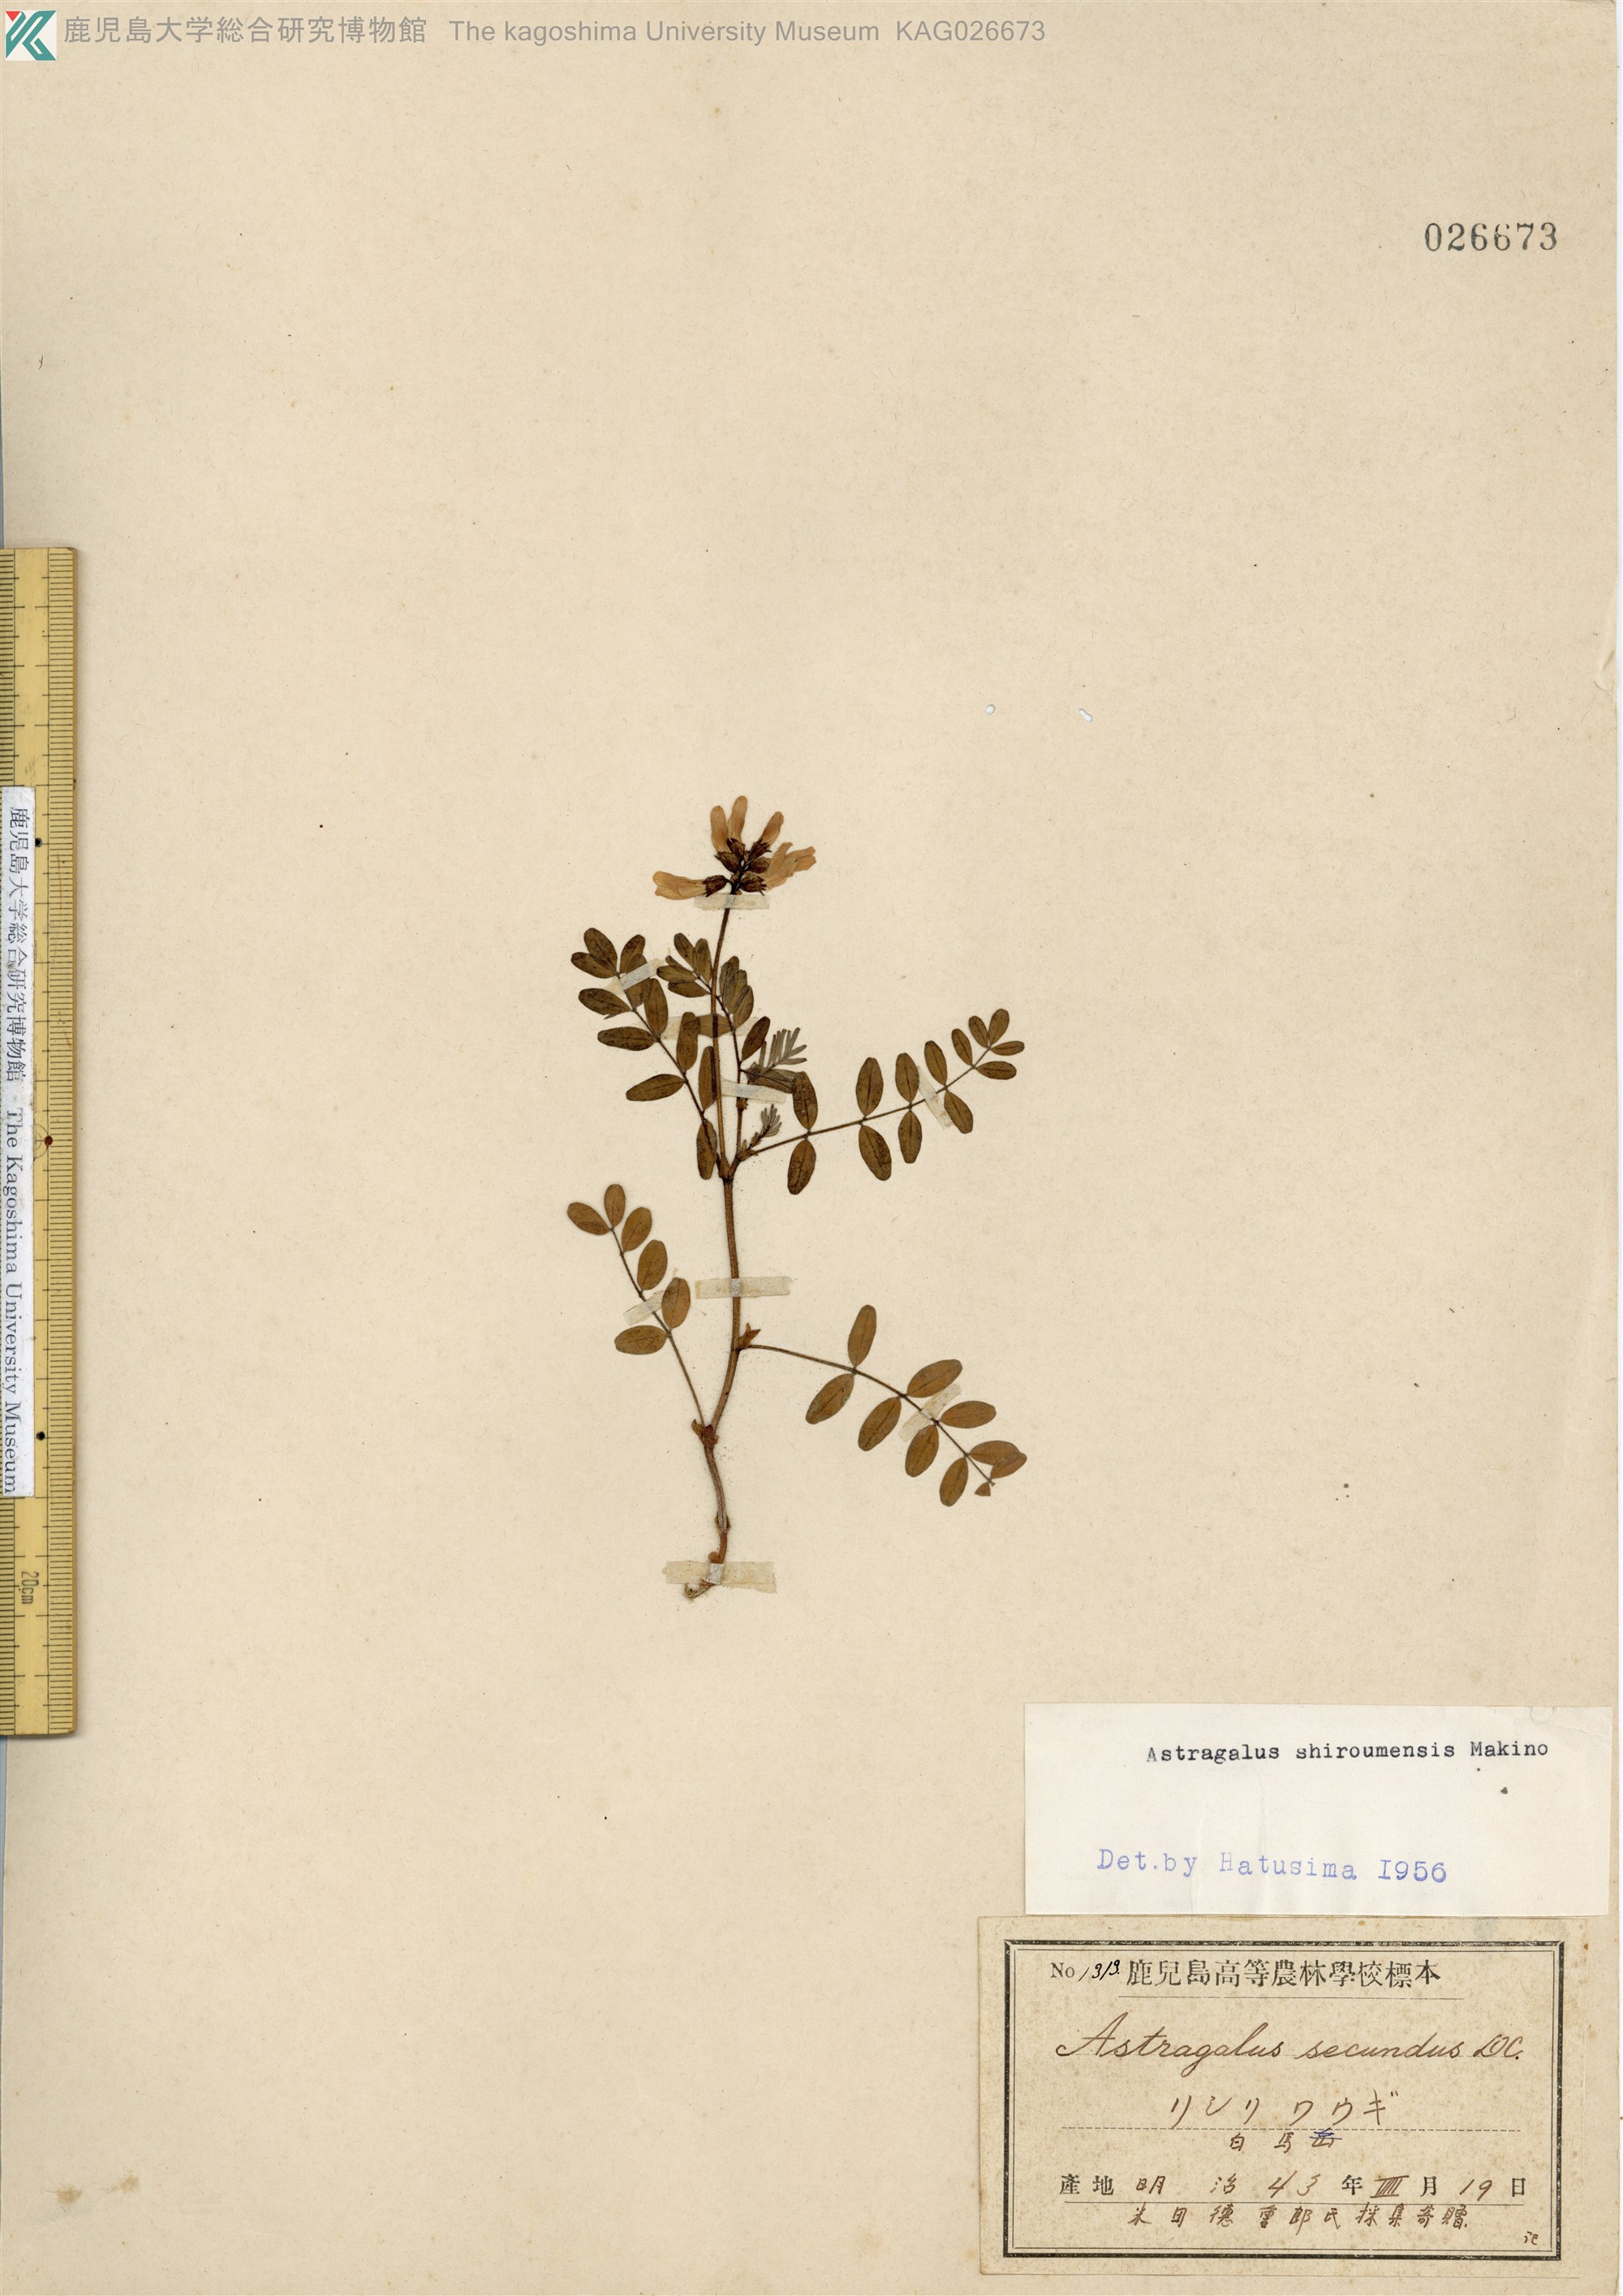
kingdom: Plantae
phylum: Tracheophyta
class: Magnoliopsida
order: Fabales
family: Fabaceae
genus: Astragalus
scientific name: Astragalus shiroumensis
